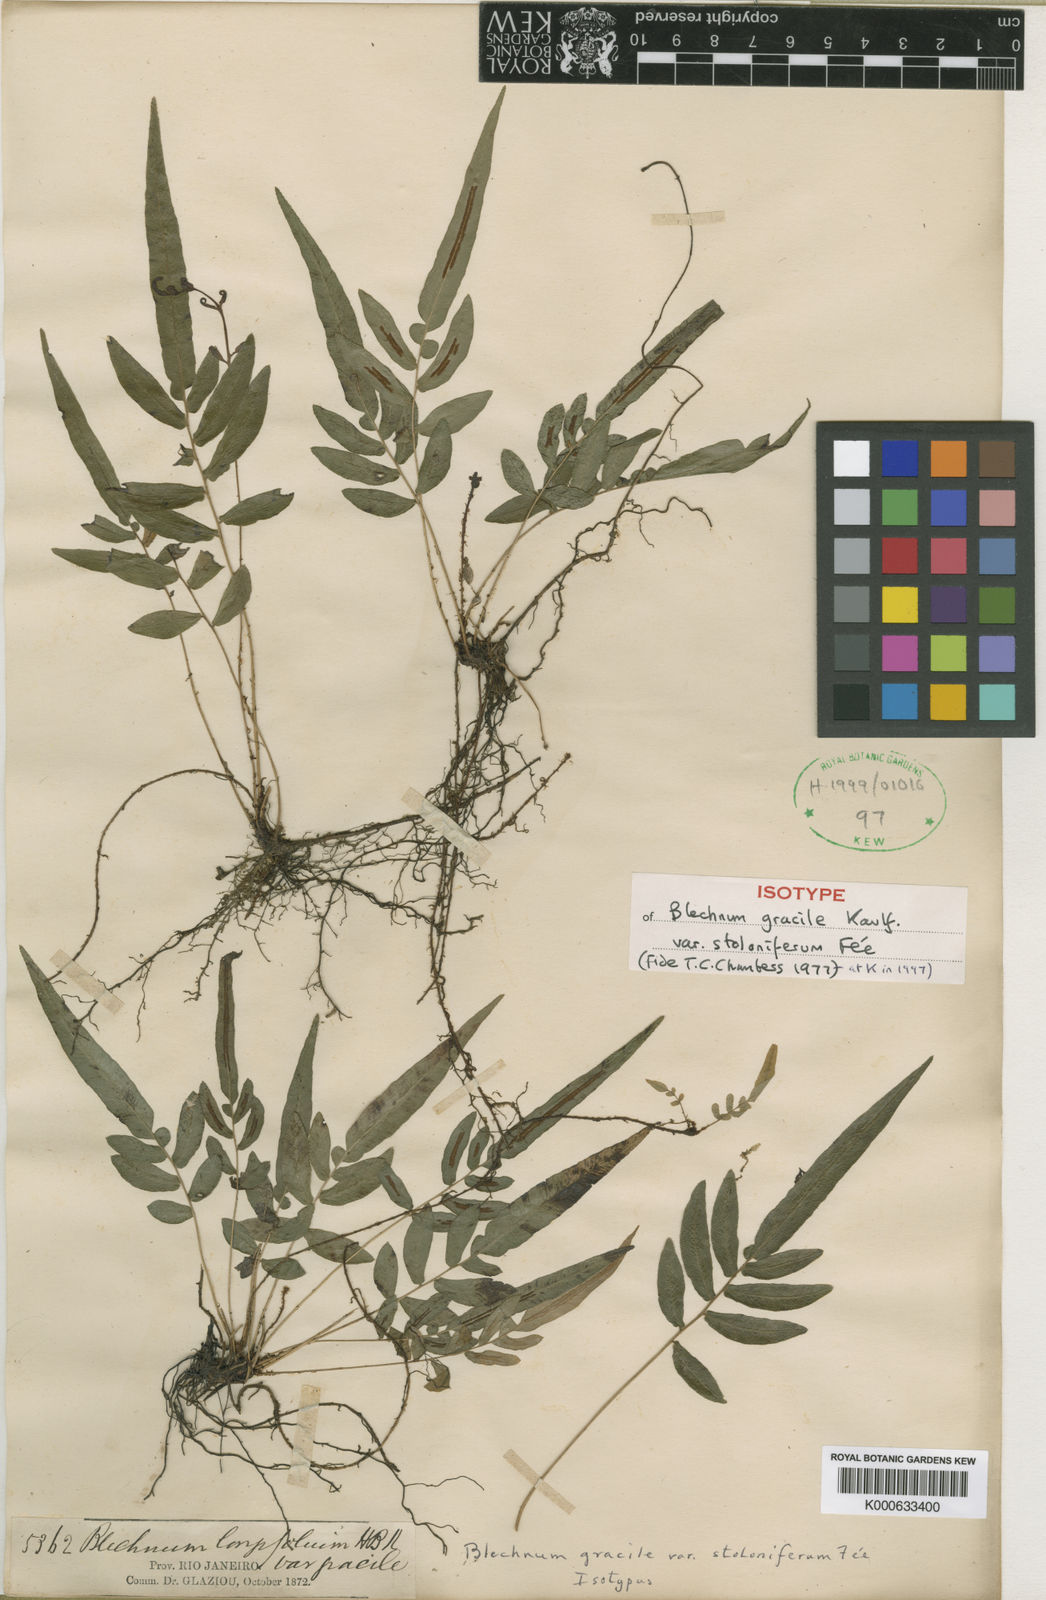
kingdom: Plantae
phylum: Tracheophyta
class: Polypodiopsida
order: Polypodiales
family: Blechnaceae
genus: Blechnum
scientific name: Blechnum gracile
